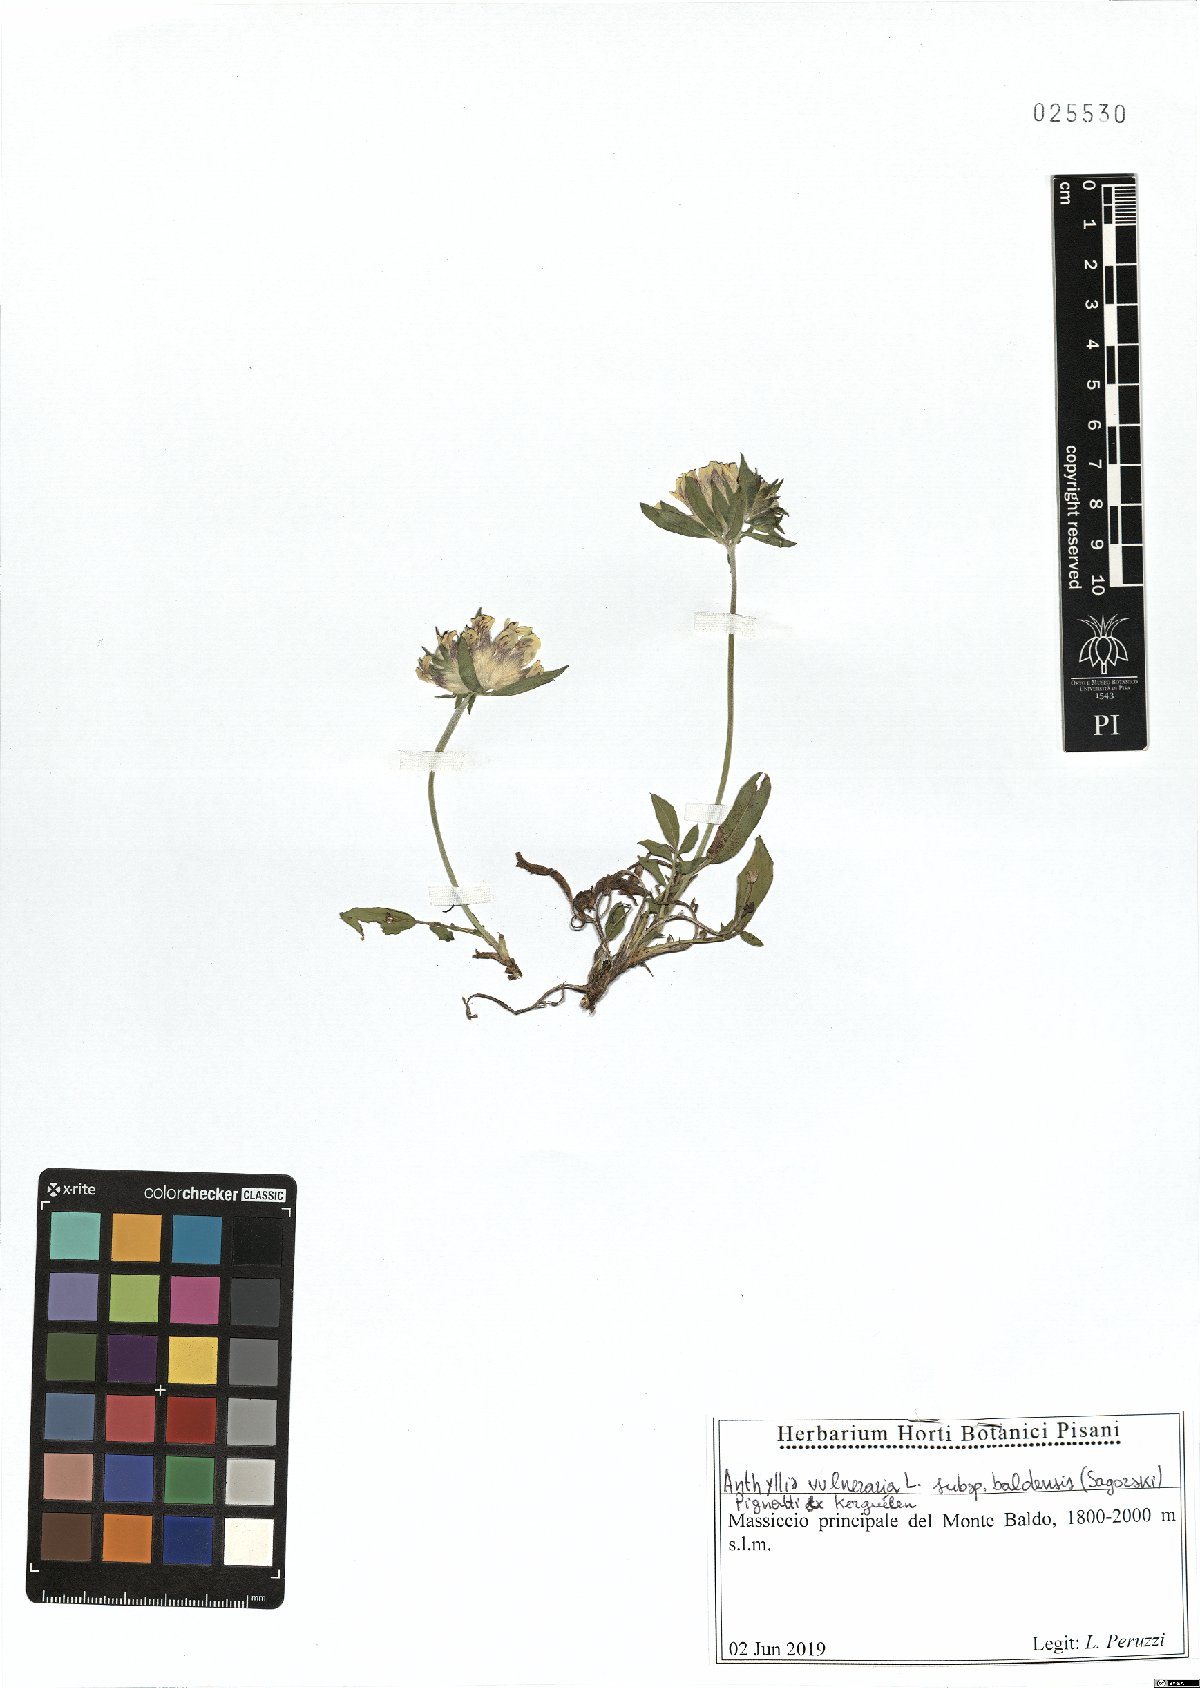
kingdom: Plantae
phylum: Tracheophyta
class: Magnoliopsida
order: Fabales
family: Fabaceae
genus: Anthyllis
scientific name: Anthyllis vulneraria
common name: Kidney vetch
